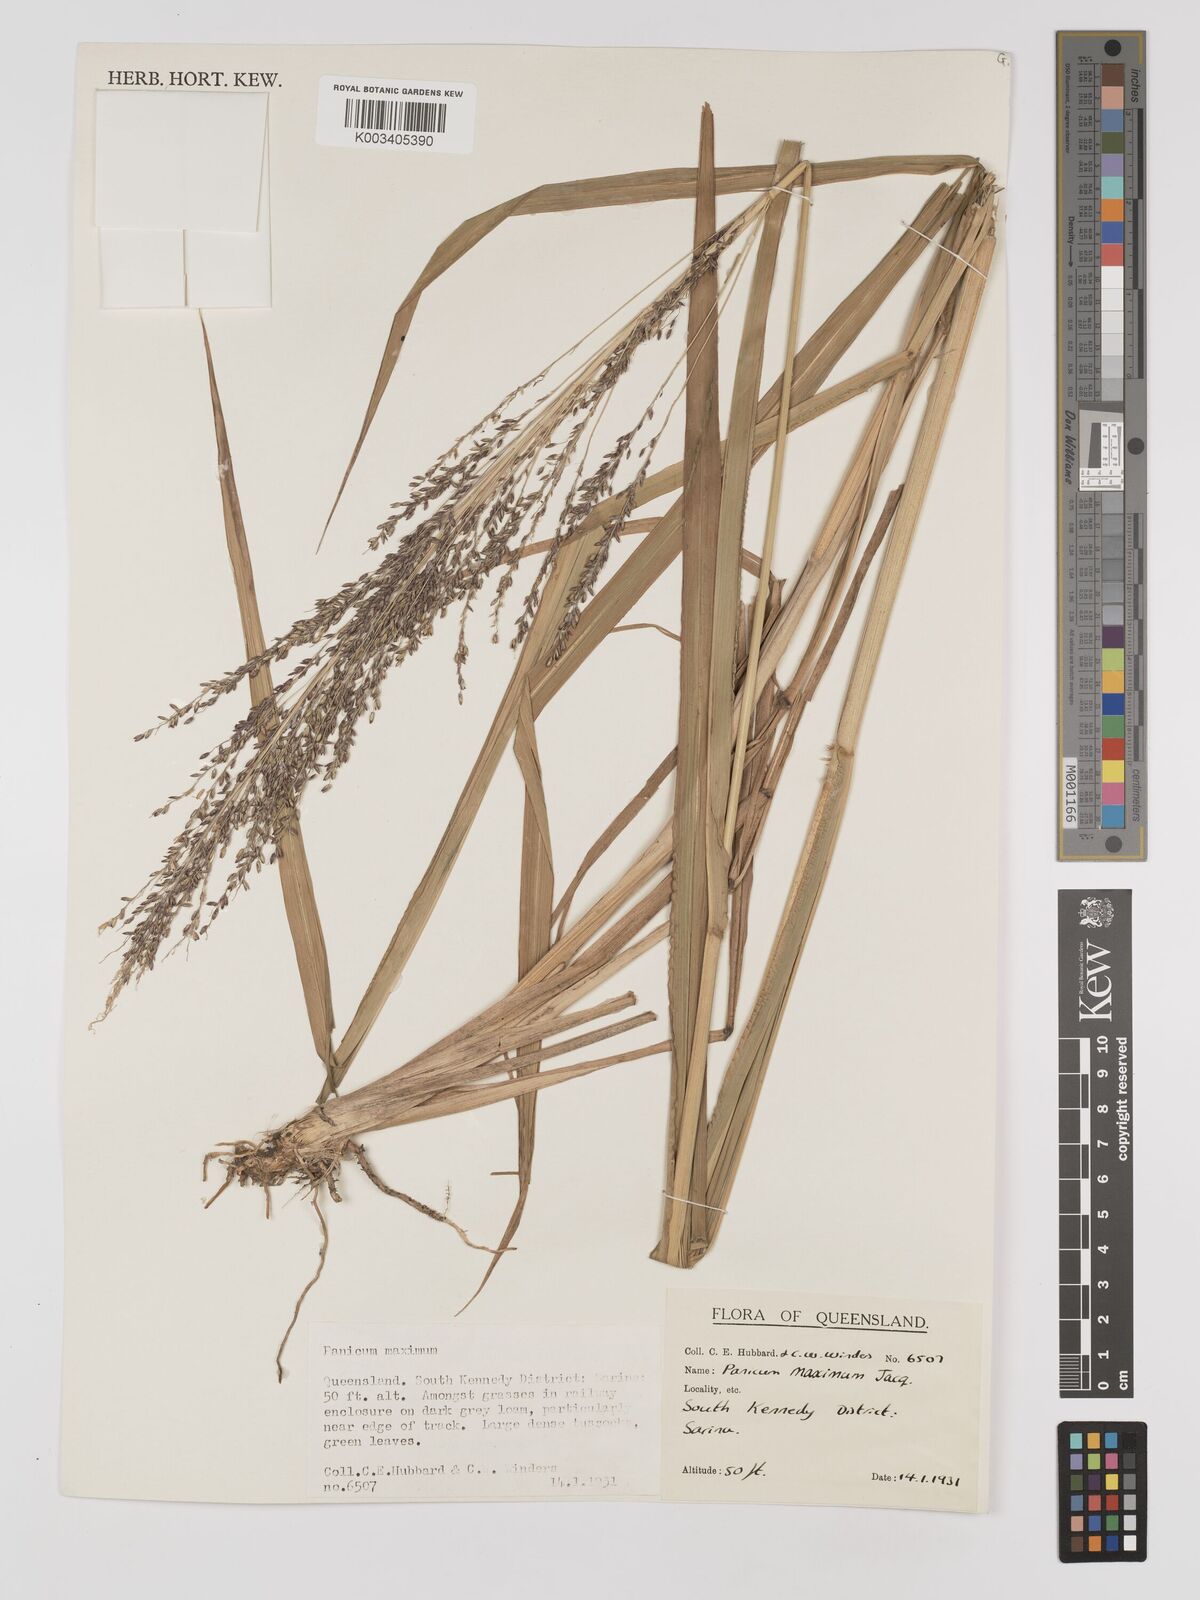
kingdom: Plantae
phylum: Tracheophyta
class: Liliopsida
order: Poales
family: Poaceae
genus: Megathyrsus
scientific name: Megathyrsus maximus
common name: Guineagrass
